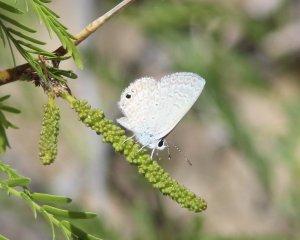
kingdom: Animalia
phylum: Arthropoda
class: Insecta
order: Lepidoptera
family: Lycaenidae
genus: Hemiargus
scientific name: Hemiargus ceraunus
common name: Ceraunus Blue
